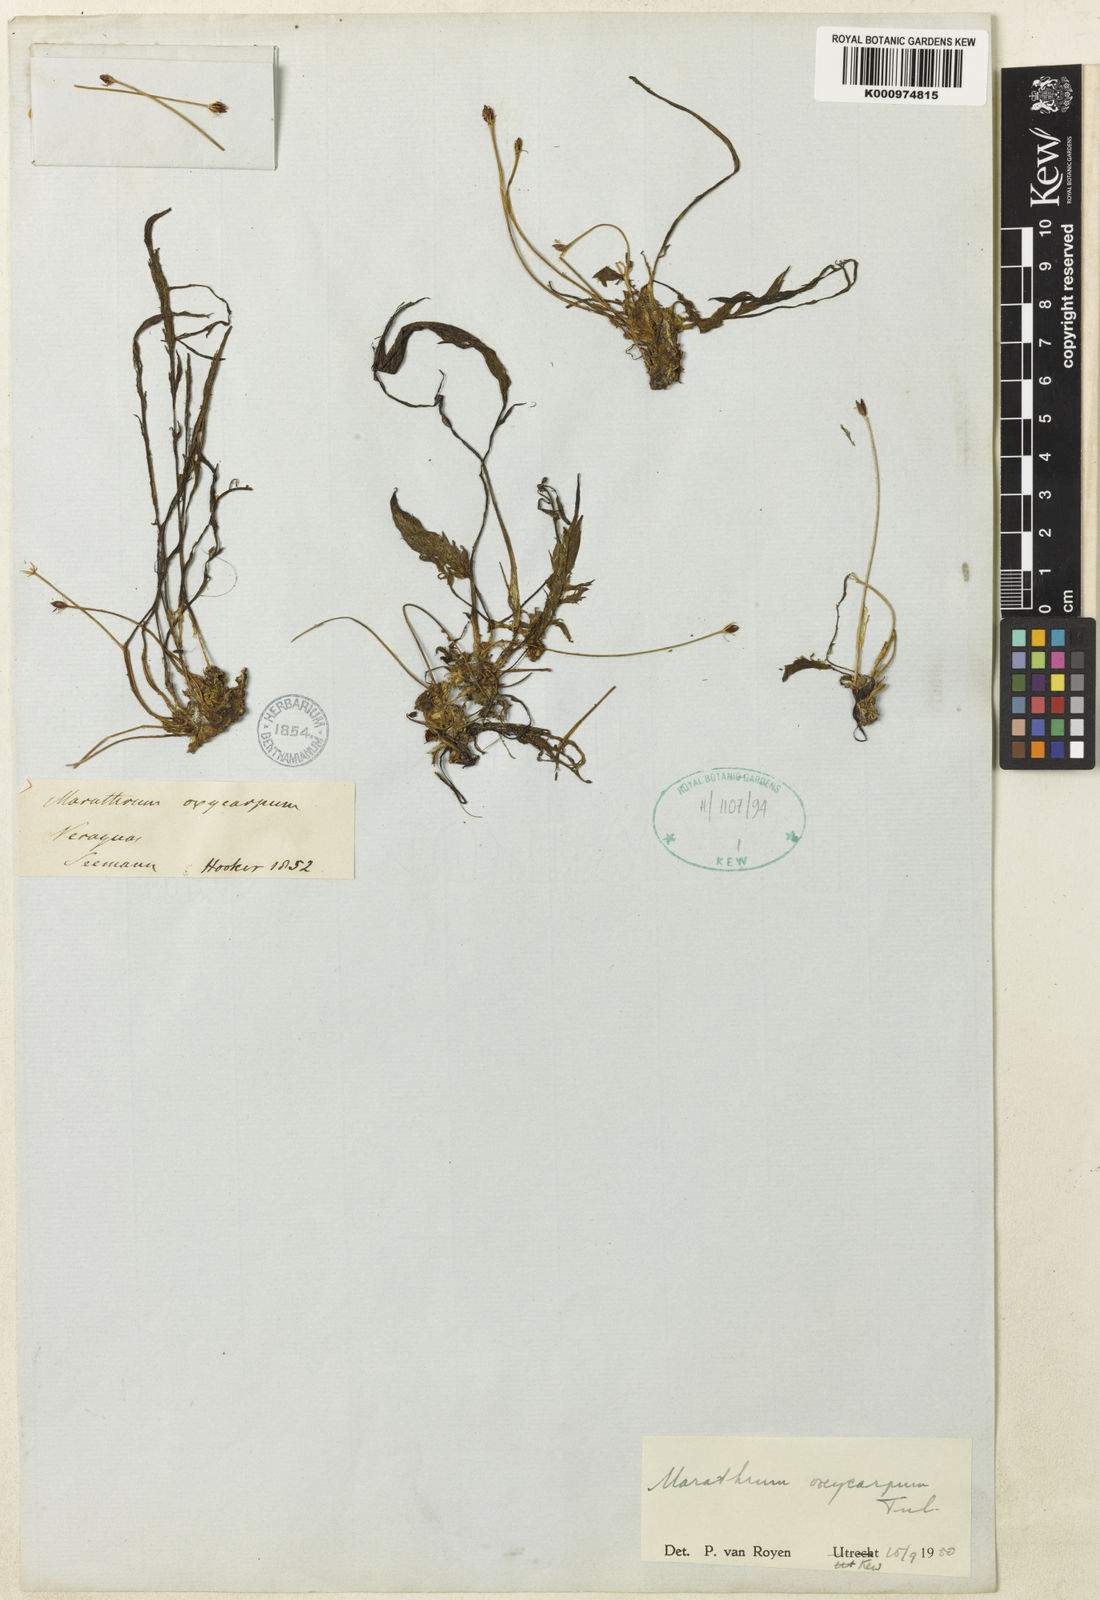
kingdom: Plantae
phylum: Tracheophyta
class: Magnoliopsida
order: Malpighiales
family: Podostemaceae
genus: Marathrum
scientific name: Marathrum foeniculaceum
